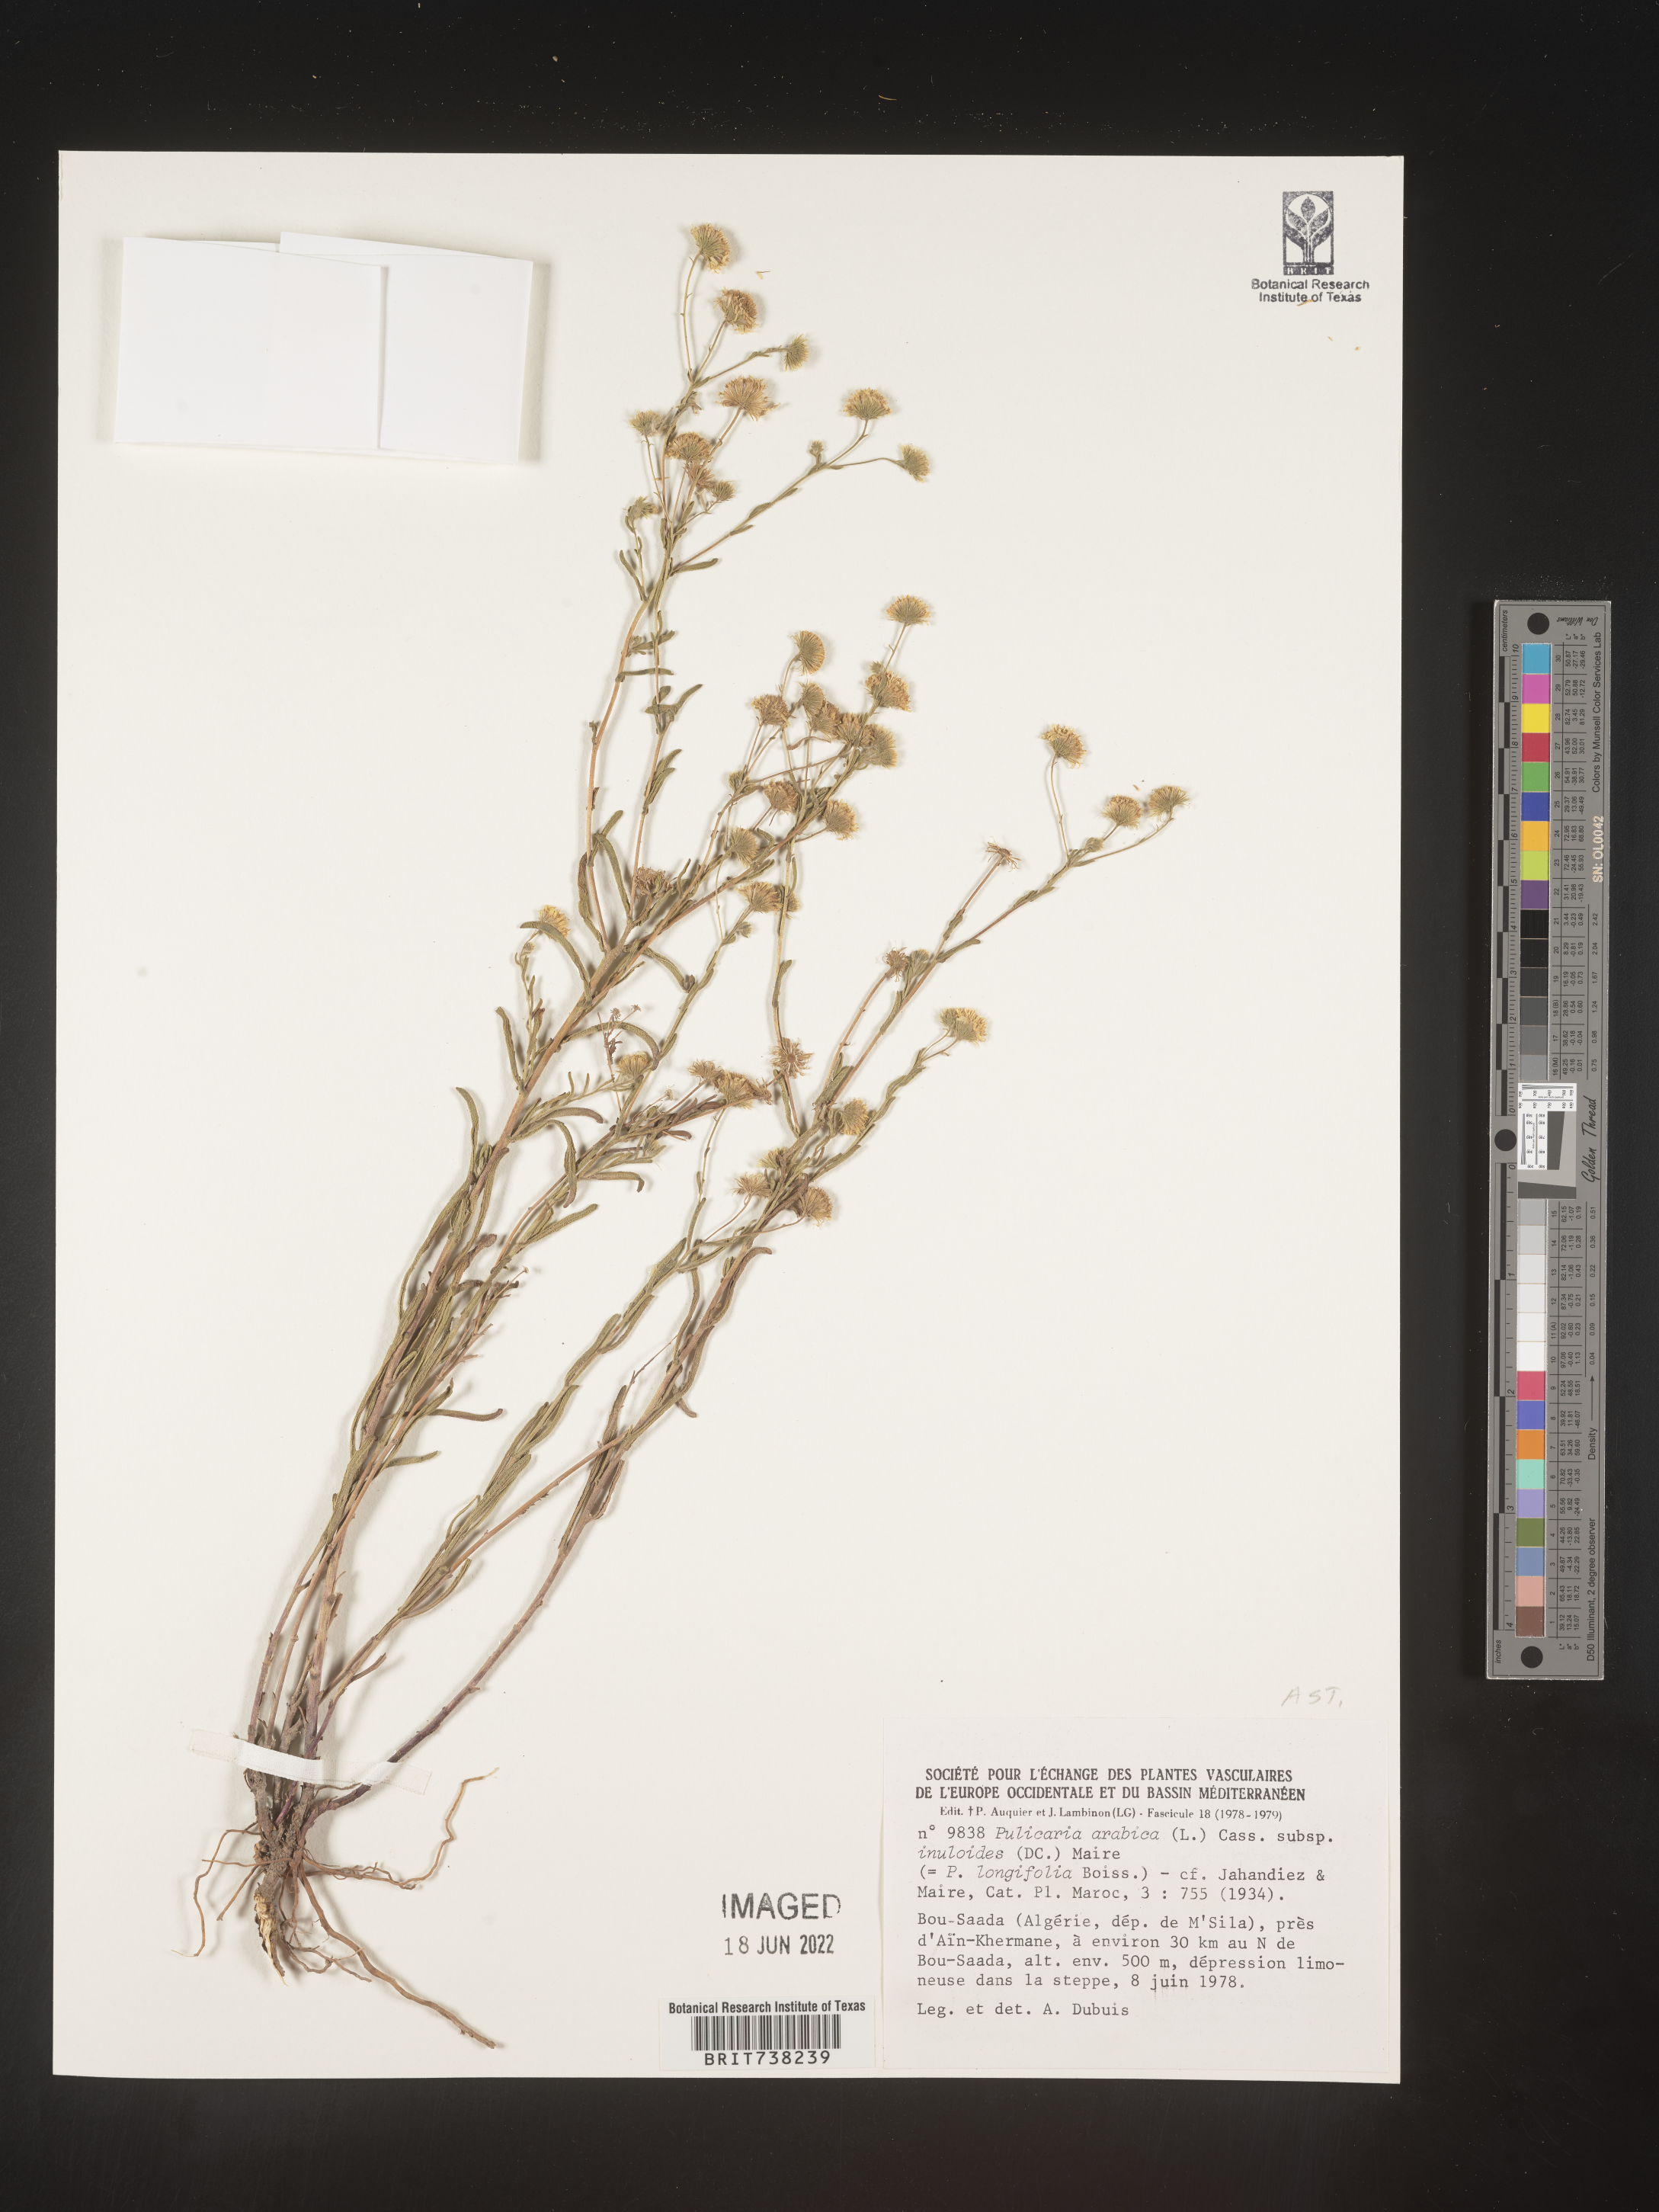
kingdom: Plantae
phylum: Tracheophyta
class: Magnoliopsida
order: Asterales
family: Asteraceae
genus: Pulicaria
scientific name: Pulicaria
